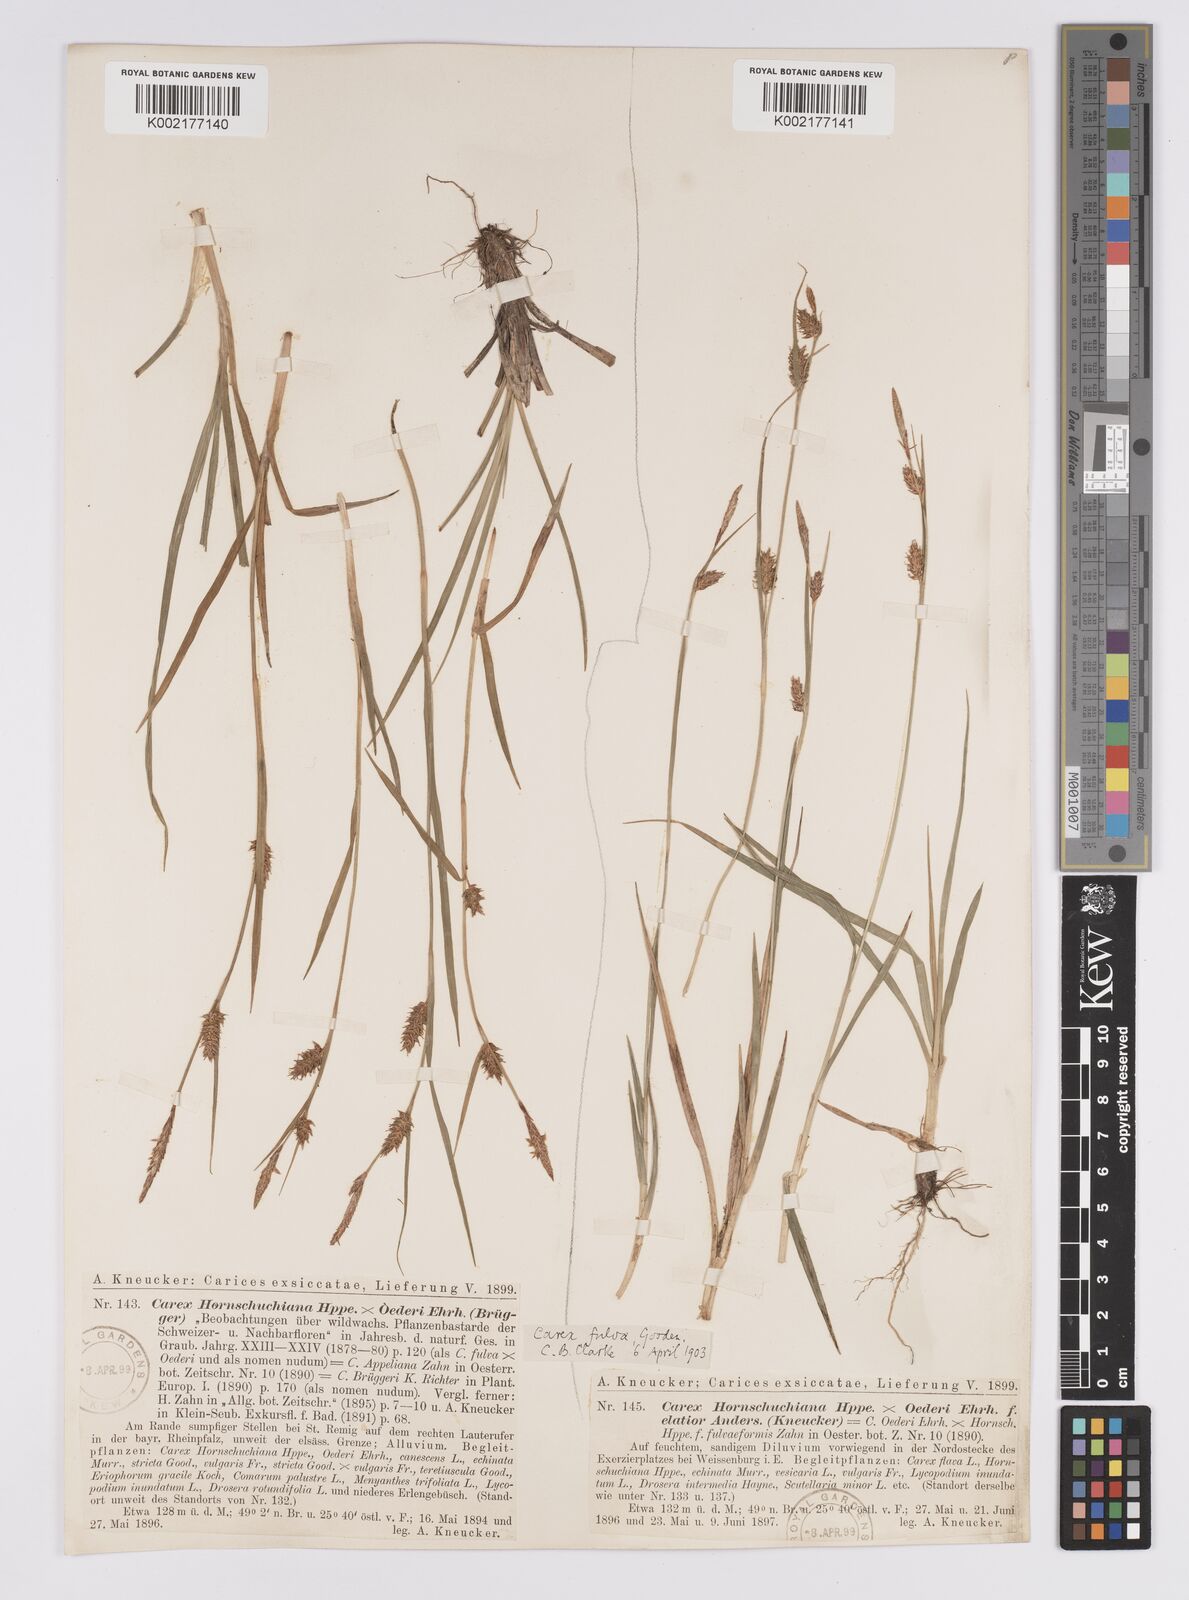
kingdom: Plantae
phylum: Tracheophyta
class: Liliopsida
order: Poales
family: Cyperaceae
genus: Carex
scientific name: Carex hostiana
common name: Tawny sedge
